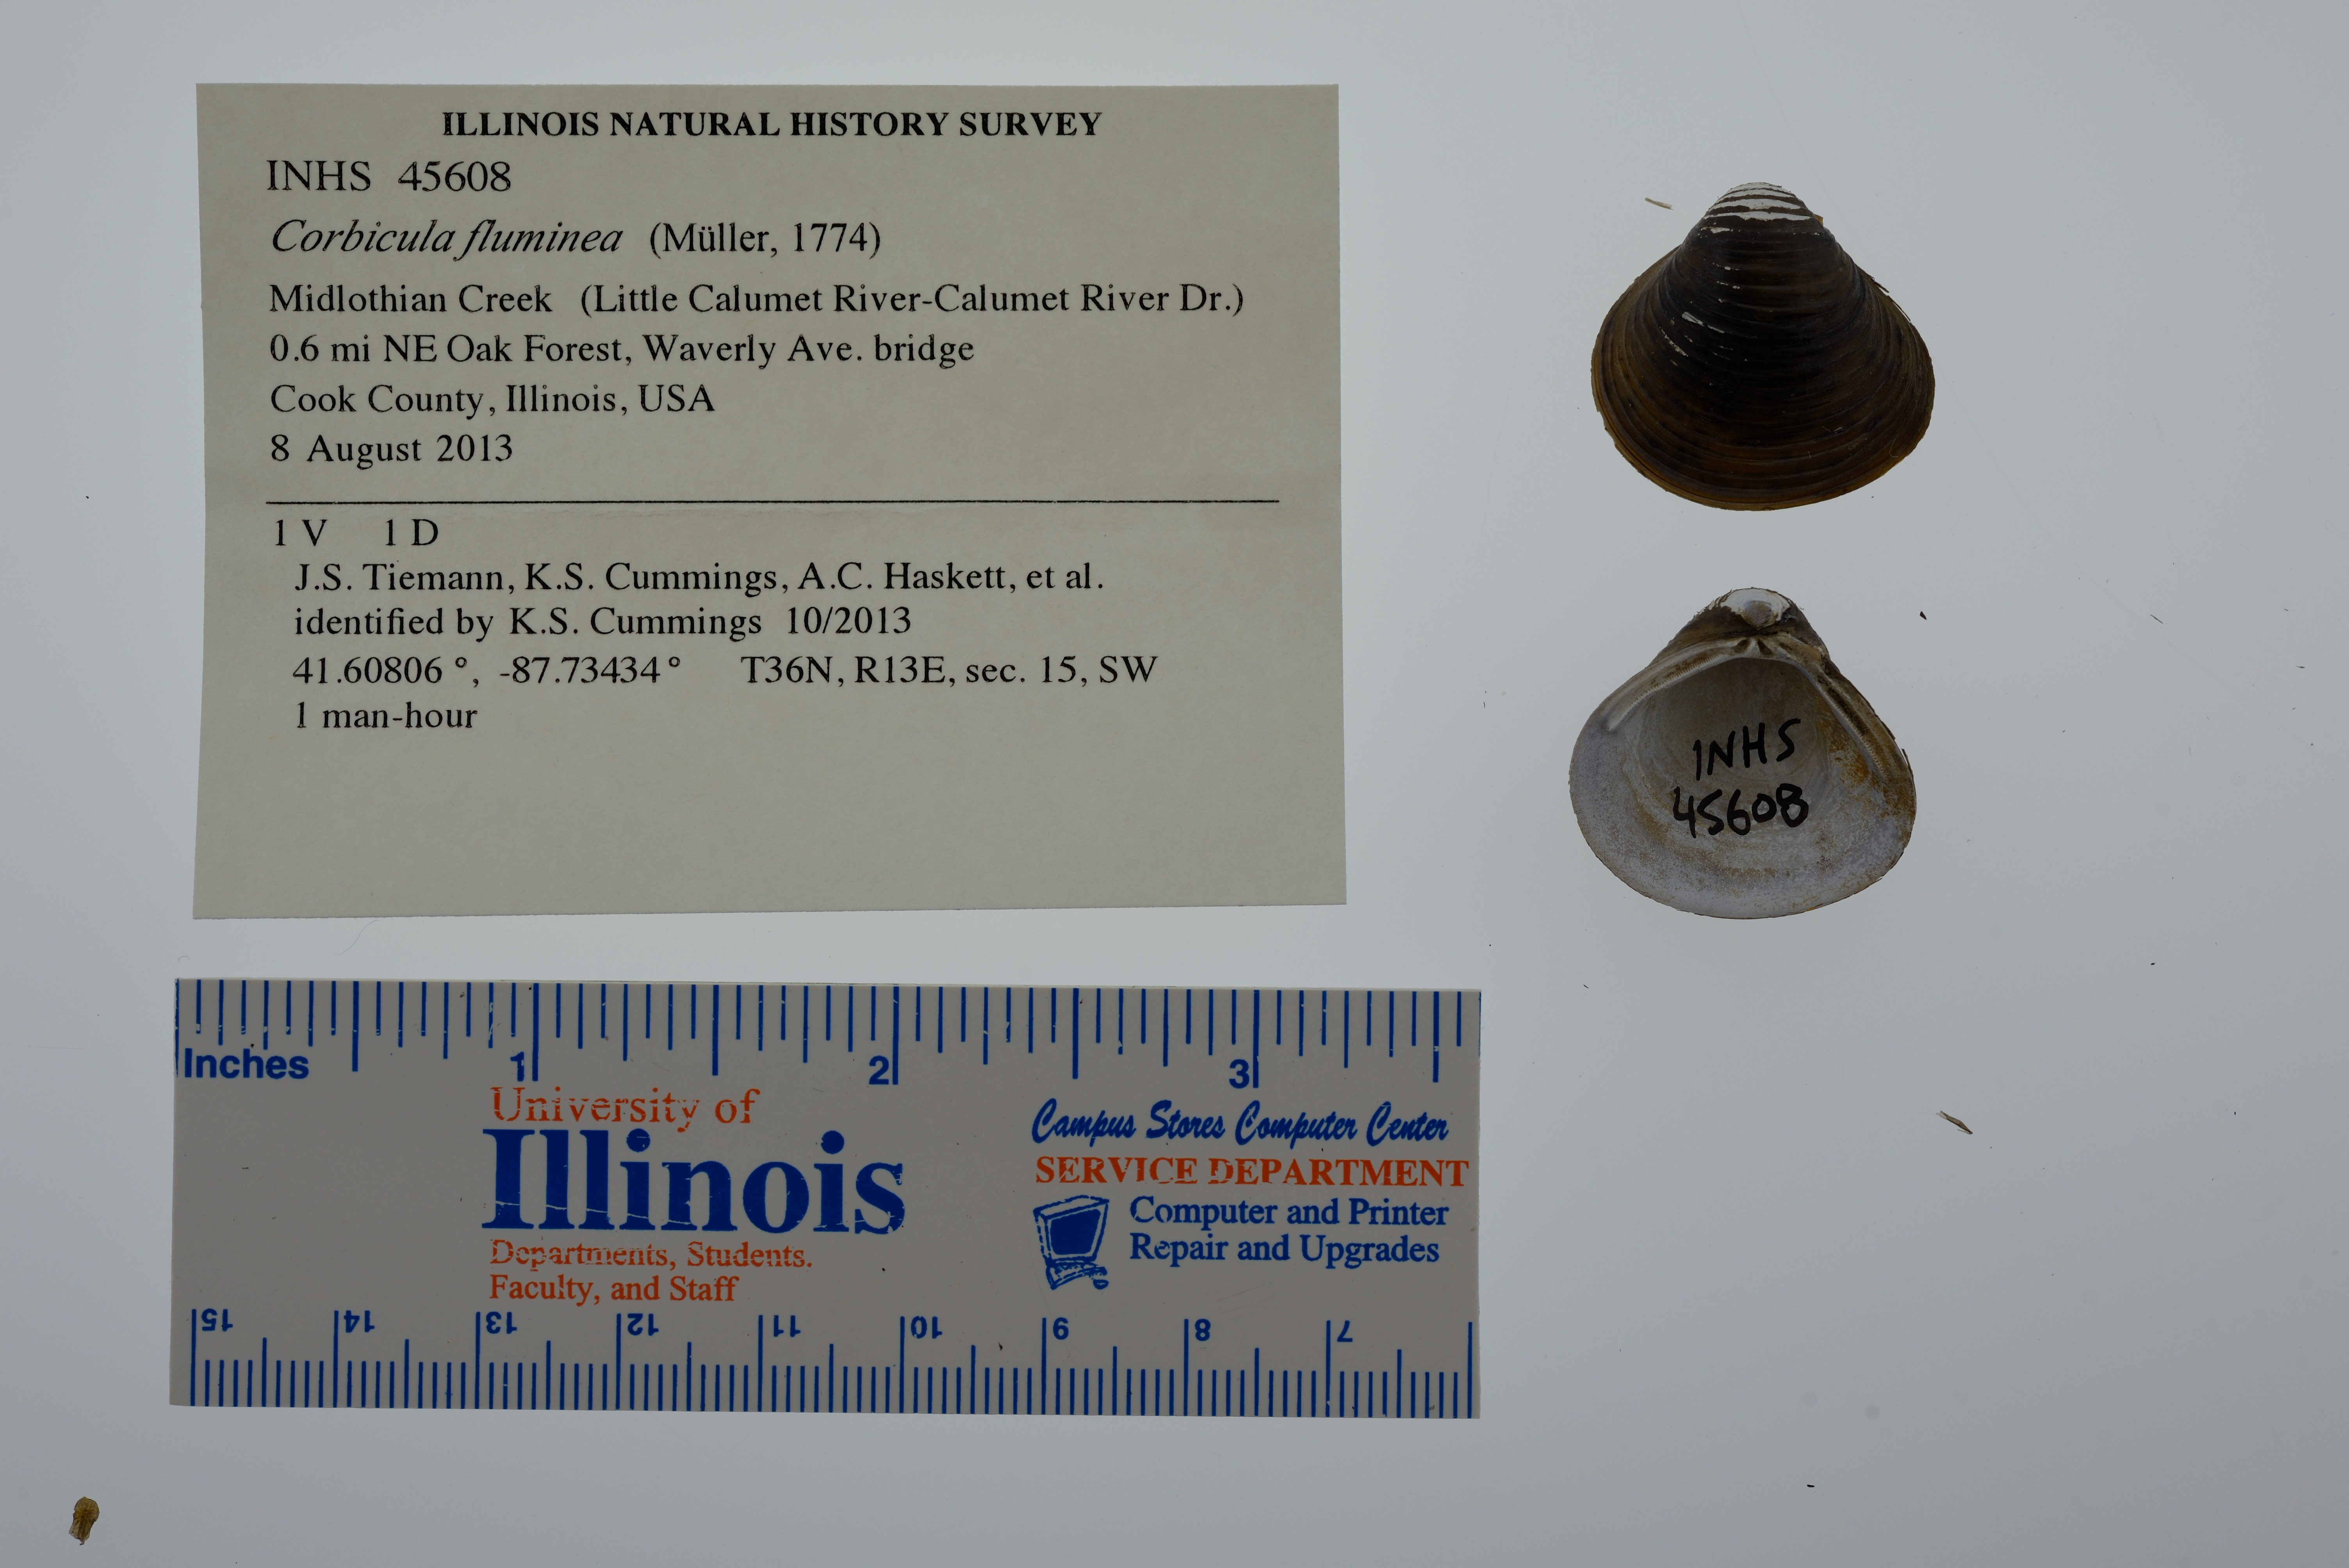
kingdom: Animalia
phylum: Mollusca
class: Bivalvia
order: Venerida
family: Cyrenidae
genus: Corbicula
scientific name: Corbicula fluminea
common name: Asian clam
